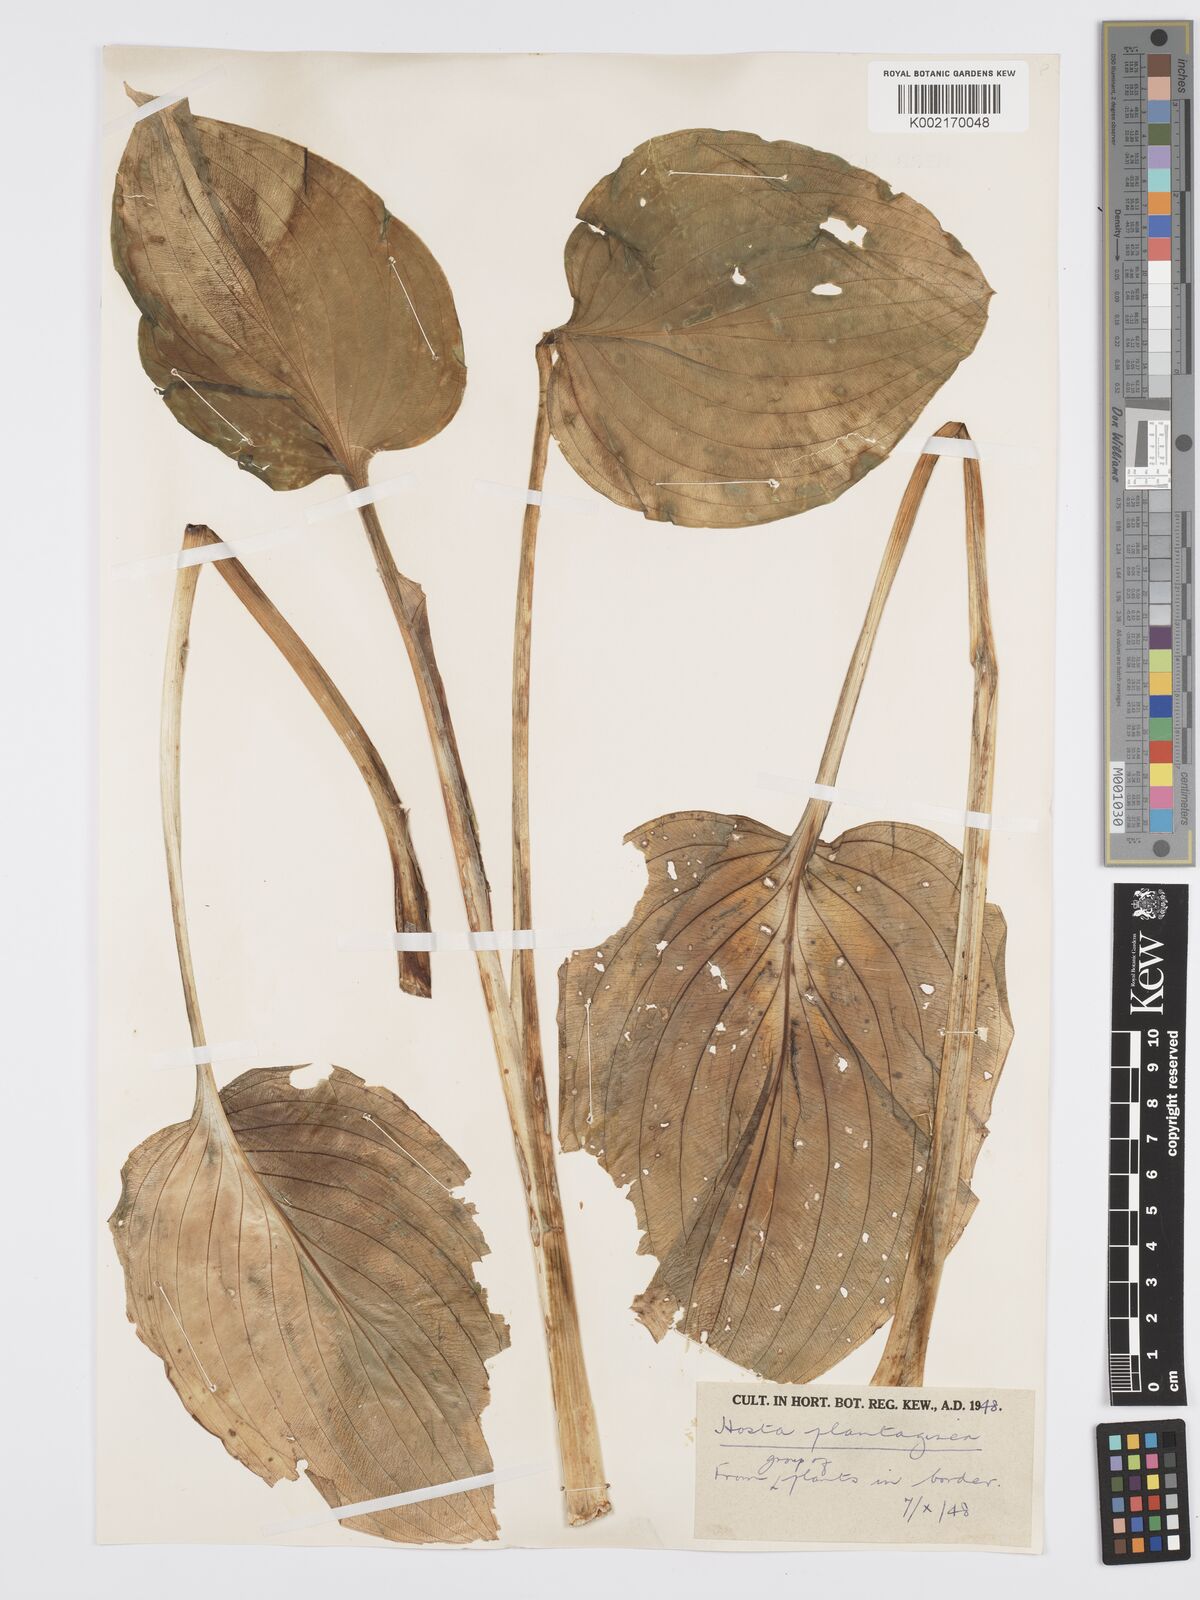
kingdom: Plantae
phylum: Tracheophyta
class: Liliopsida
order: Asparagales
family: Asparagaceae
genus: Hosta
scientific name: Hosta plantaginea
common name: August-lily
